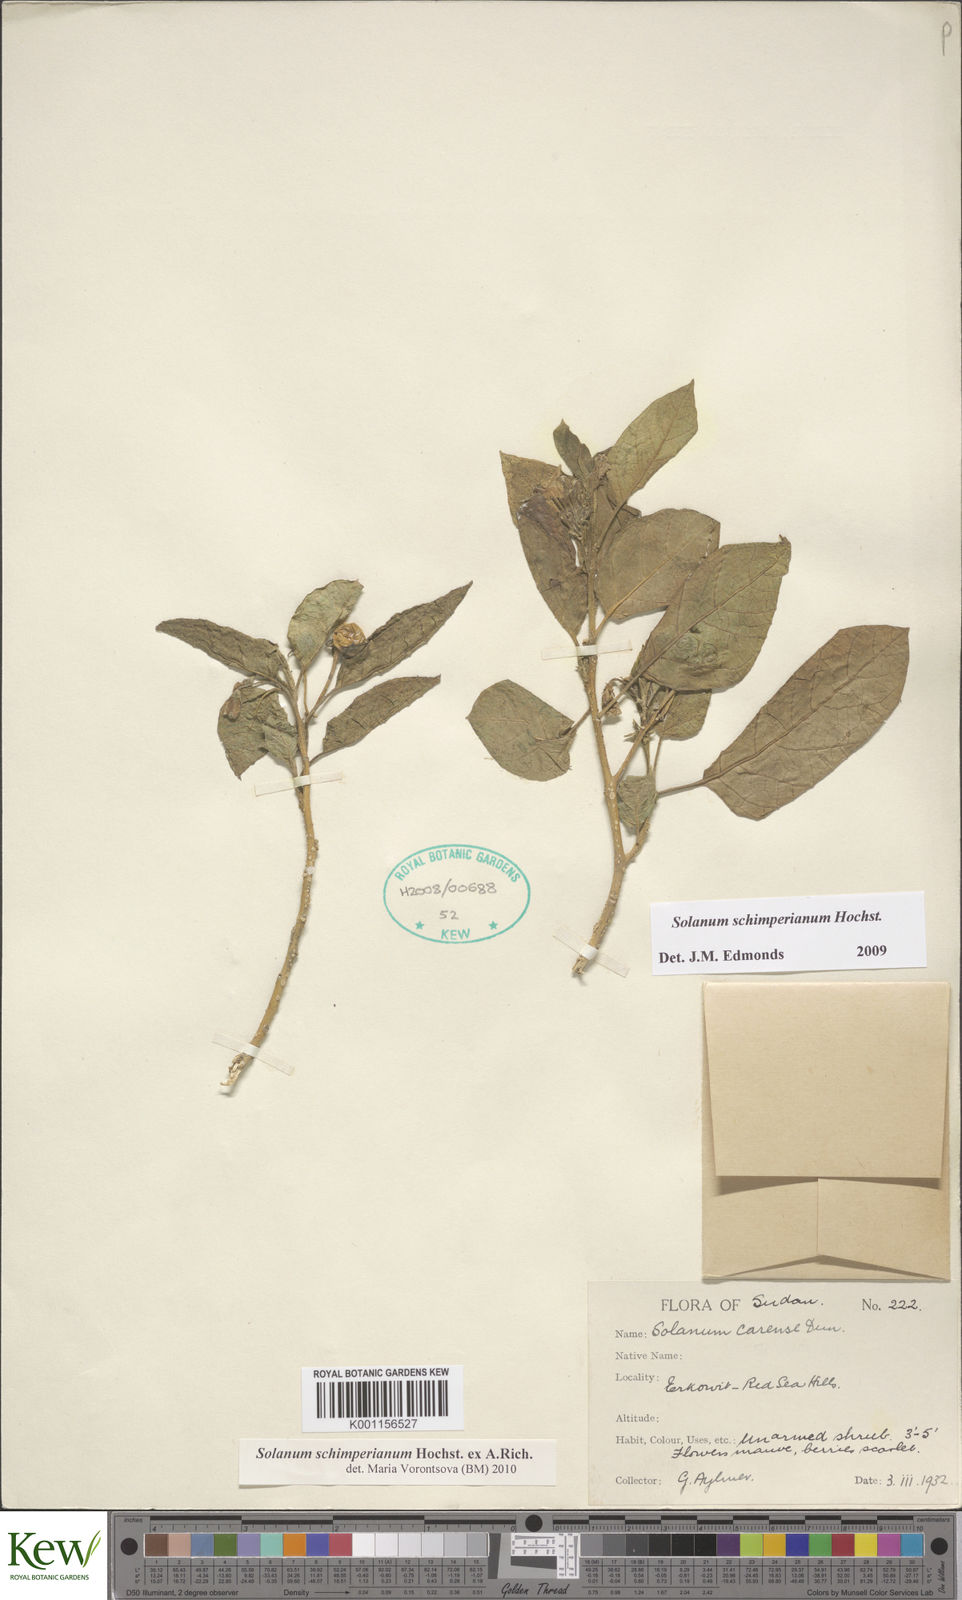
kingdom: Plantae
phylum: Tracheophyta
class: Magnoliopsida
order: Solanales
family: Solanaceae
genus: Solanum
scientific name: Solanum
